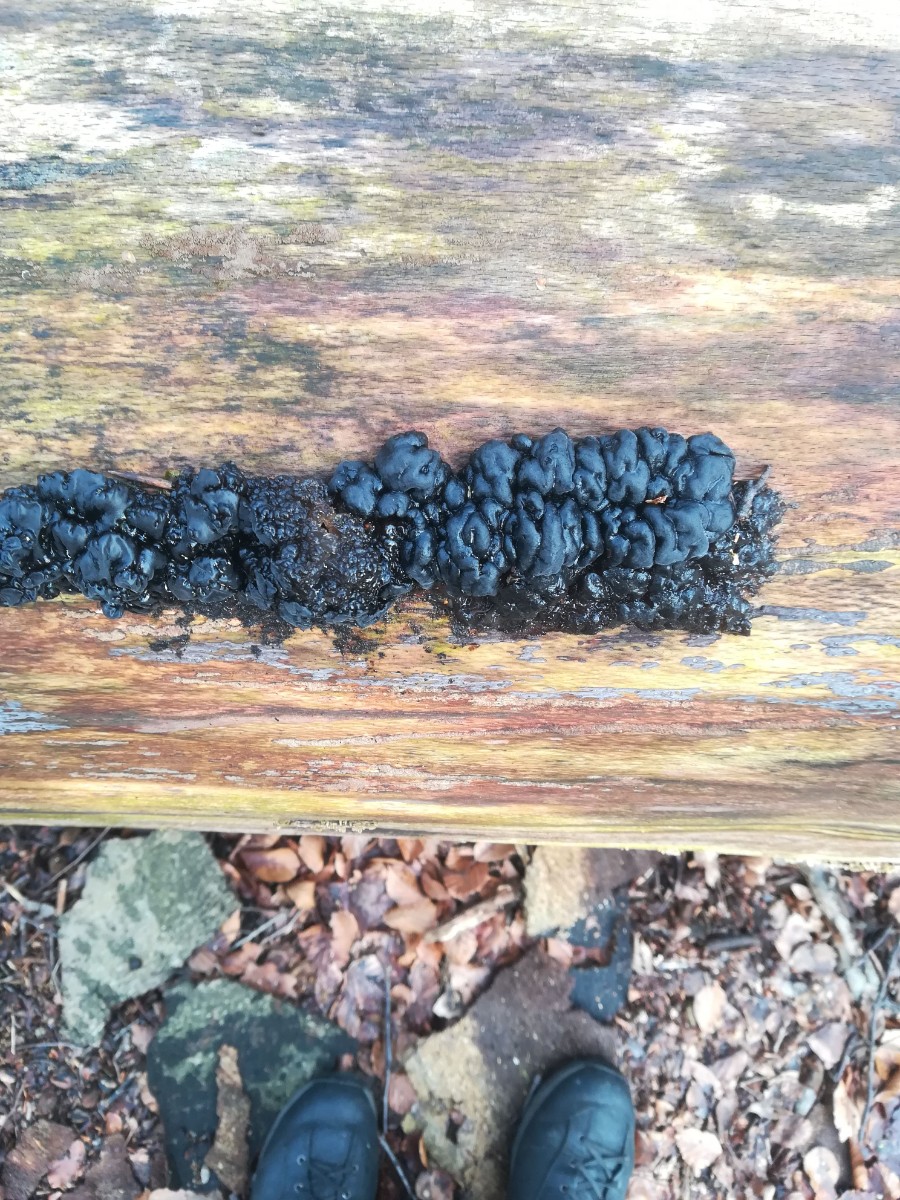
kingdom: Fungi
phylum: Basidiomycota
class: Agaricomycetes
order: Auriculariales
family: Auriculariaceae
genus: Exidia
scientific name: Exidia nigricans
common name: almindelig bævretop
